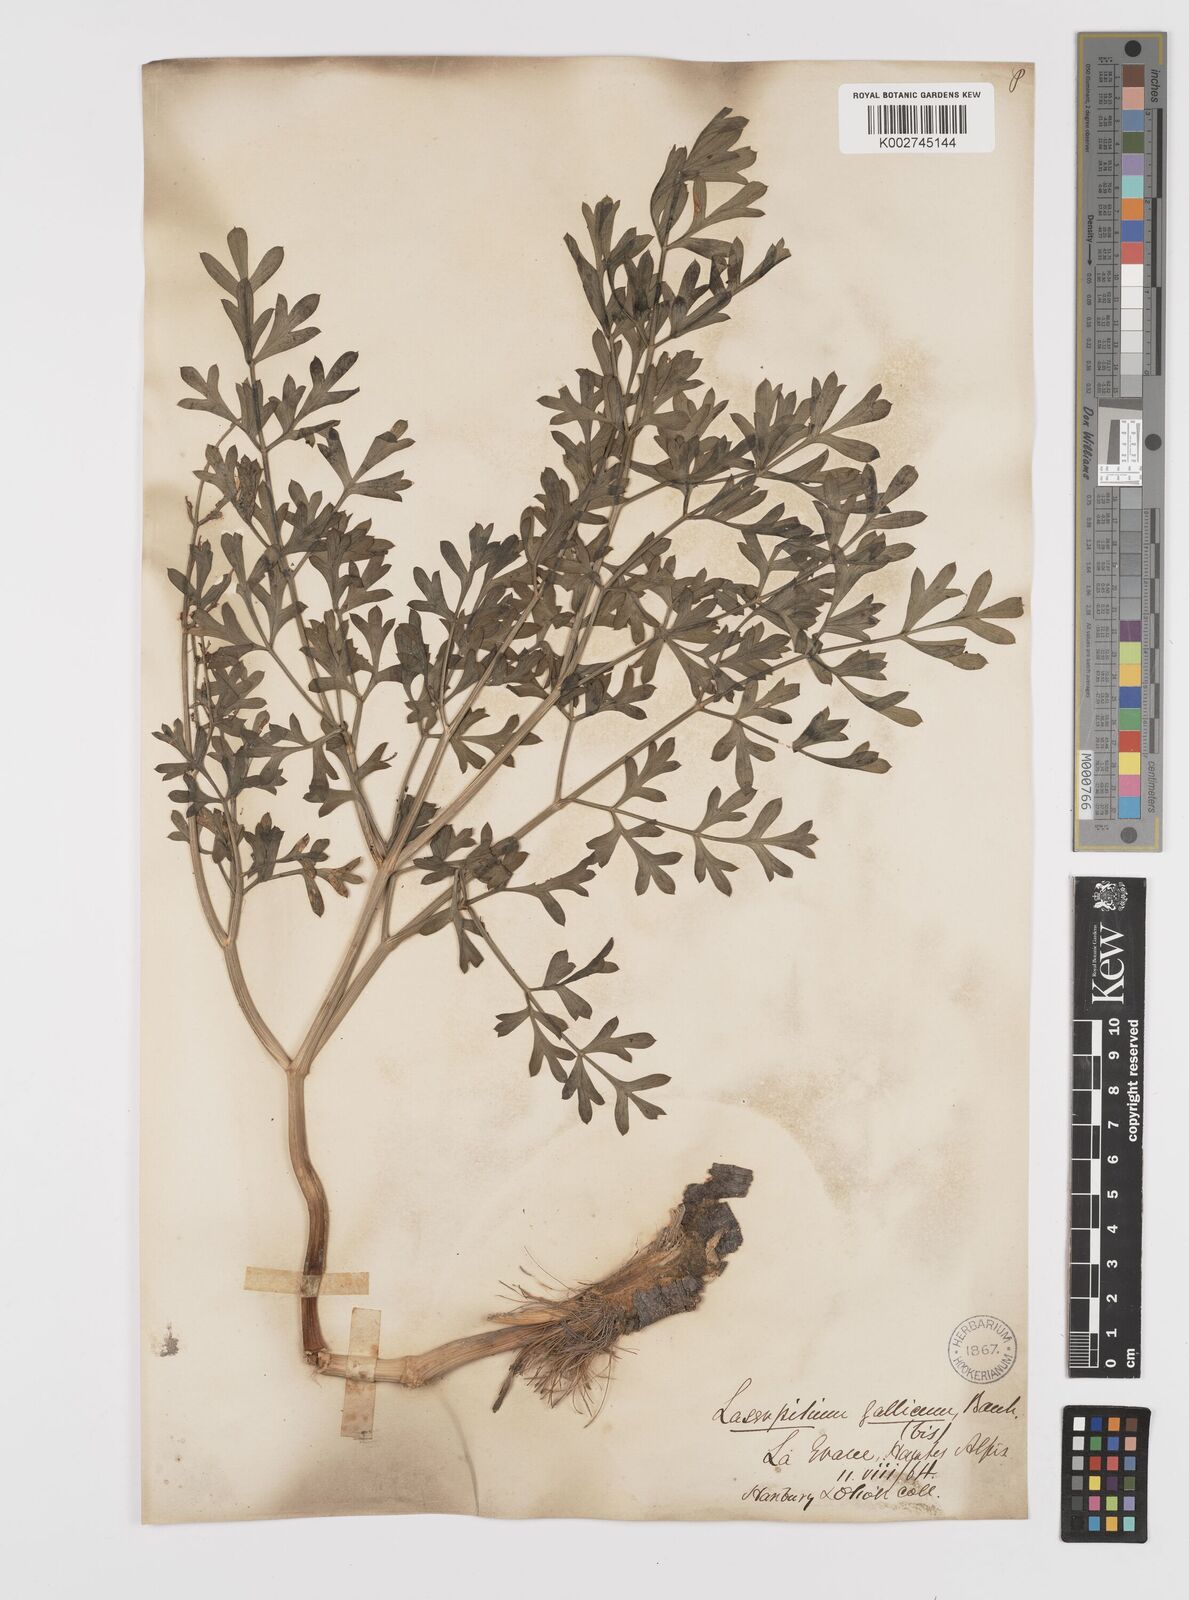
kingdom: Plantae
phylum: Tracheophyta
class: Magnoliopsida
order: Apiales
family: Apiaceae
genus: Laserpitium
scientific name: Laserpitium gallicum
